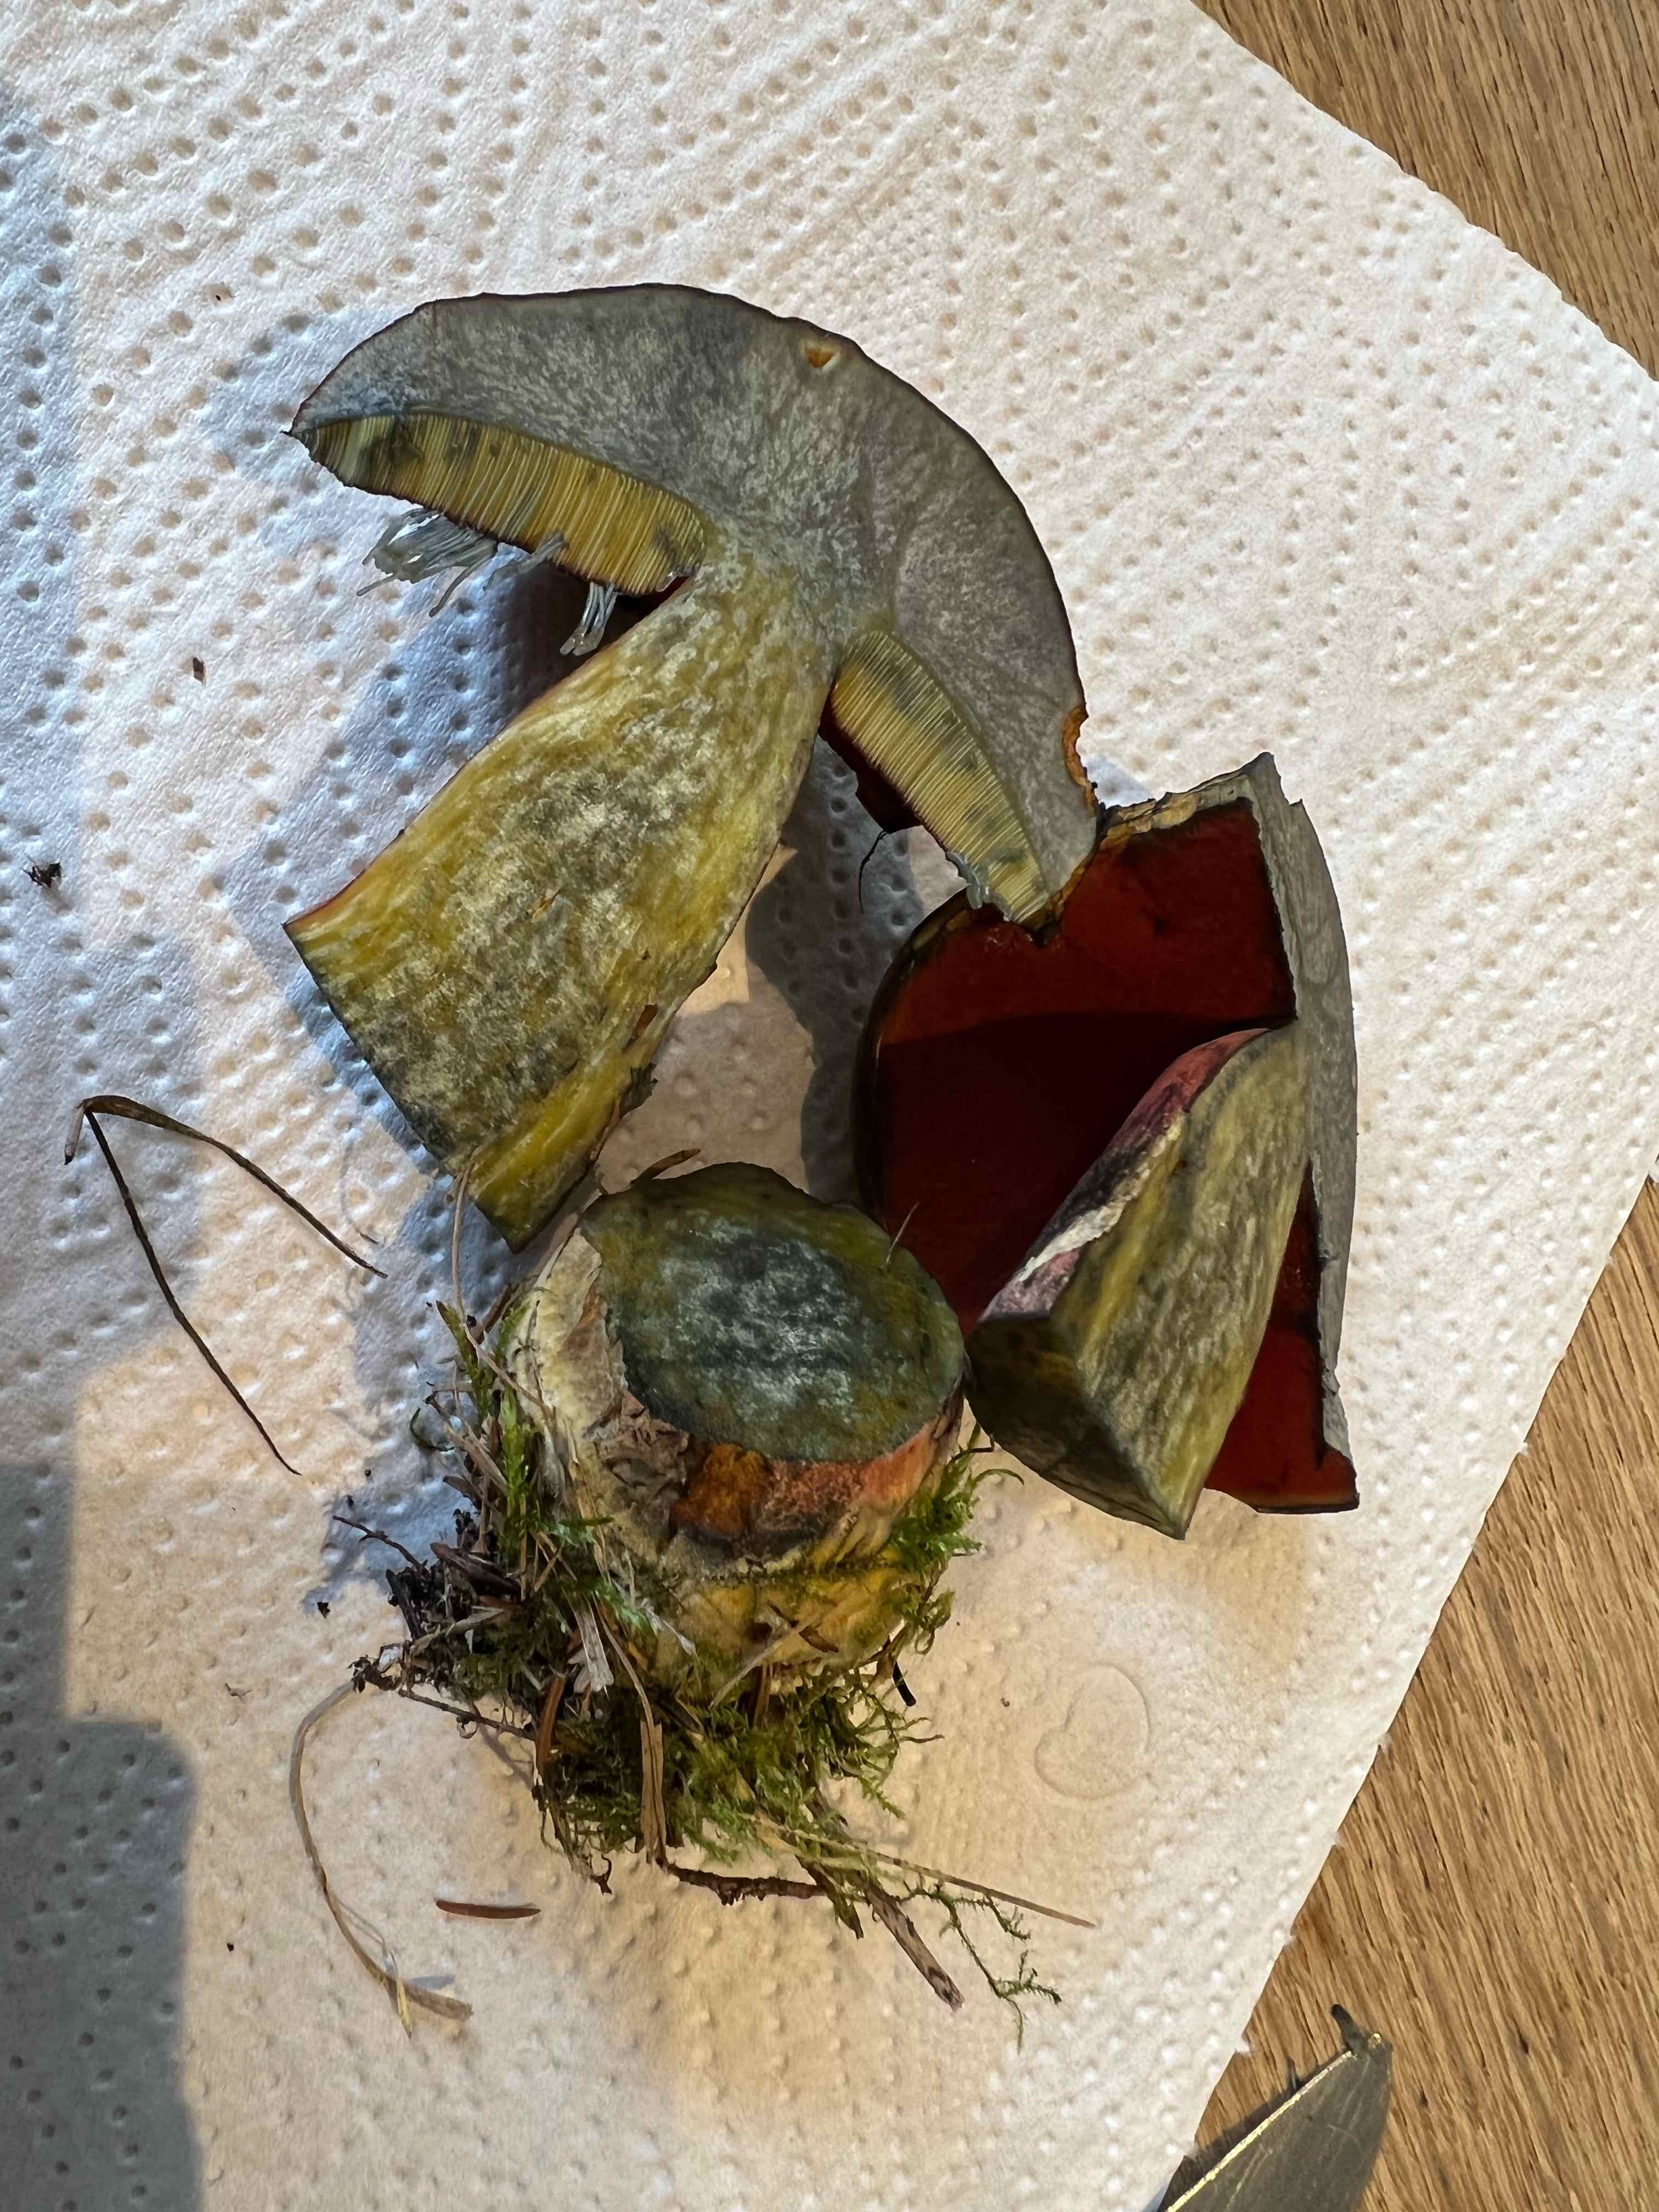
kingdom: Fungi
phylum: Basidiomycota
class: Agaricomycetes
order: Boletales
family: Boletaceae
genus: Neoboletus
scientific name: Neoboletus erythropus
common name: punktstokket indigorørhat
